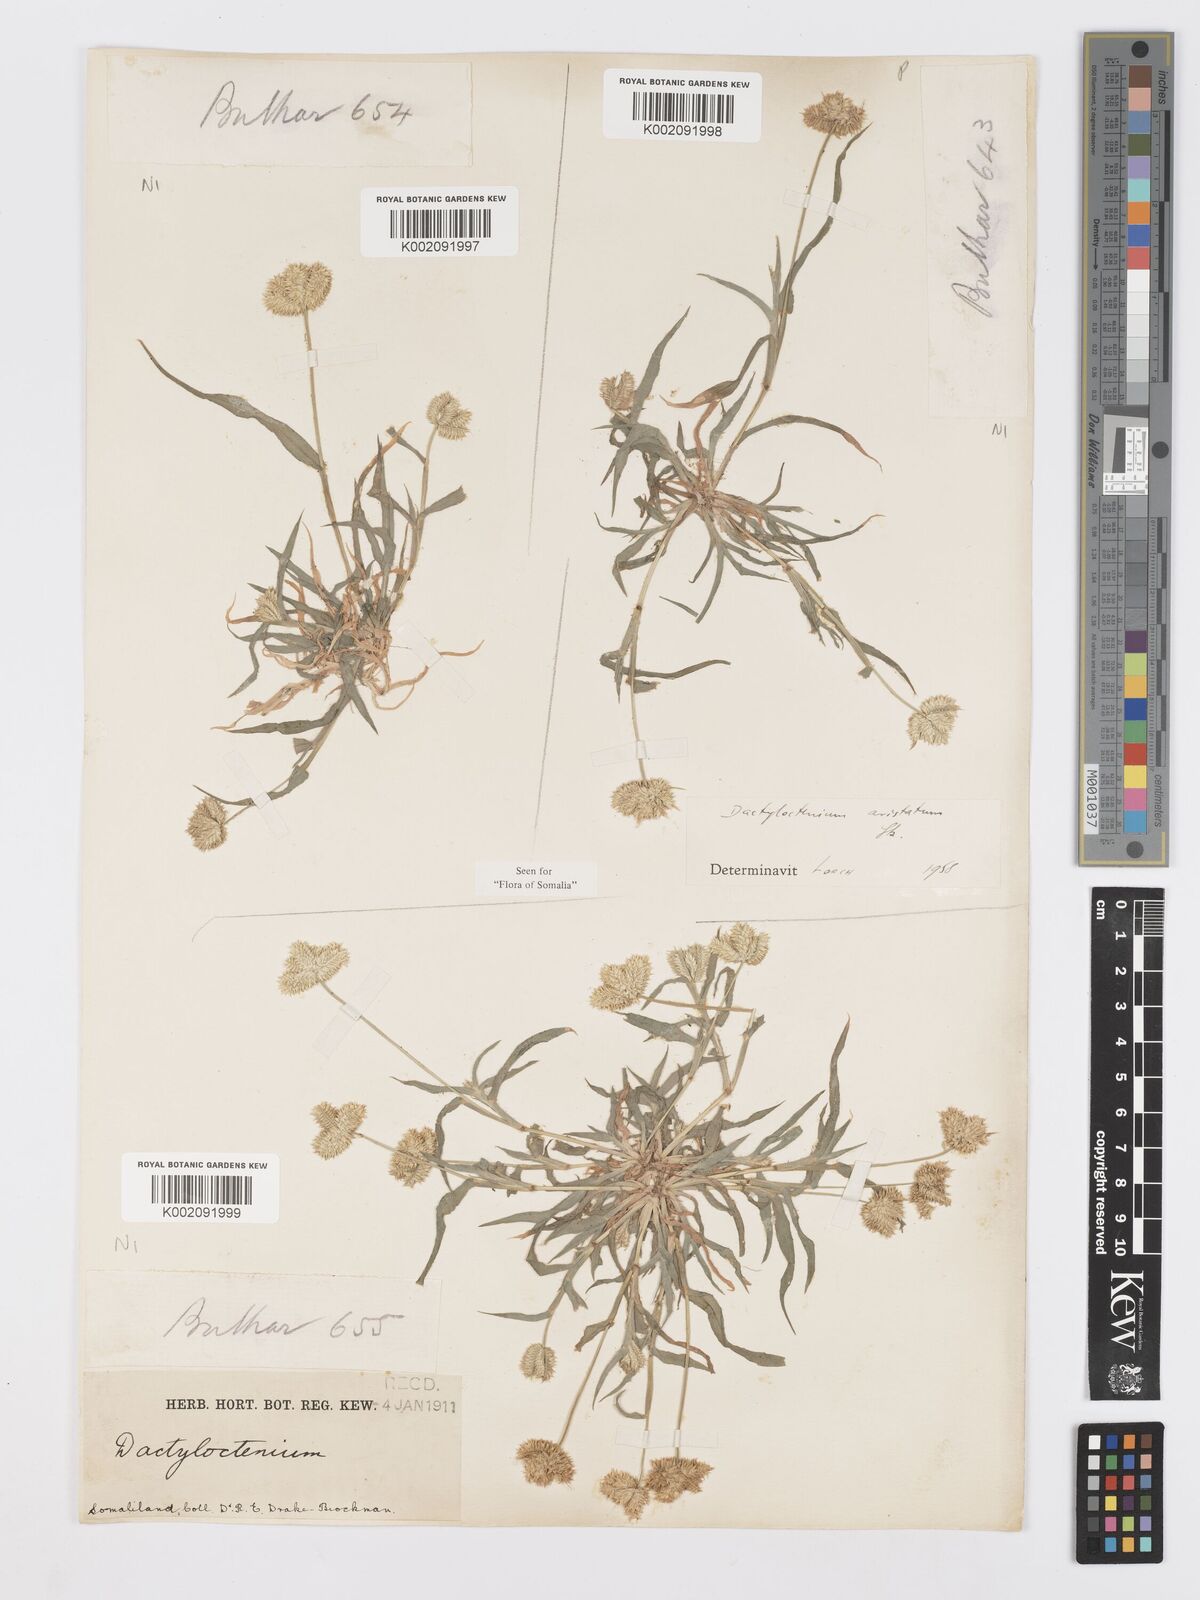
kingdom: Plantae
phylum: Tracheophyta
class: Liliopsida
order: Poales
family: Poaceae
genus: Dactyloctenium
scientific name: Dactyloctenium aristatum
